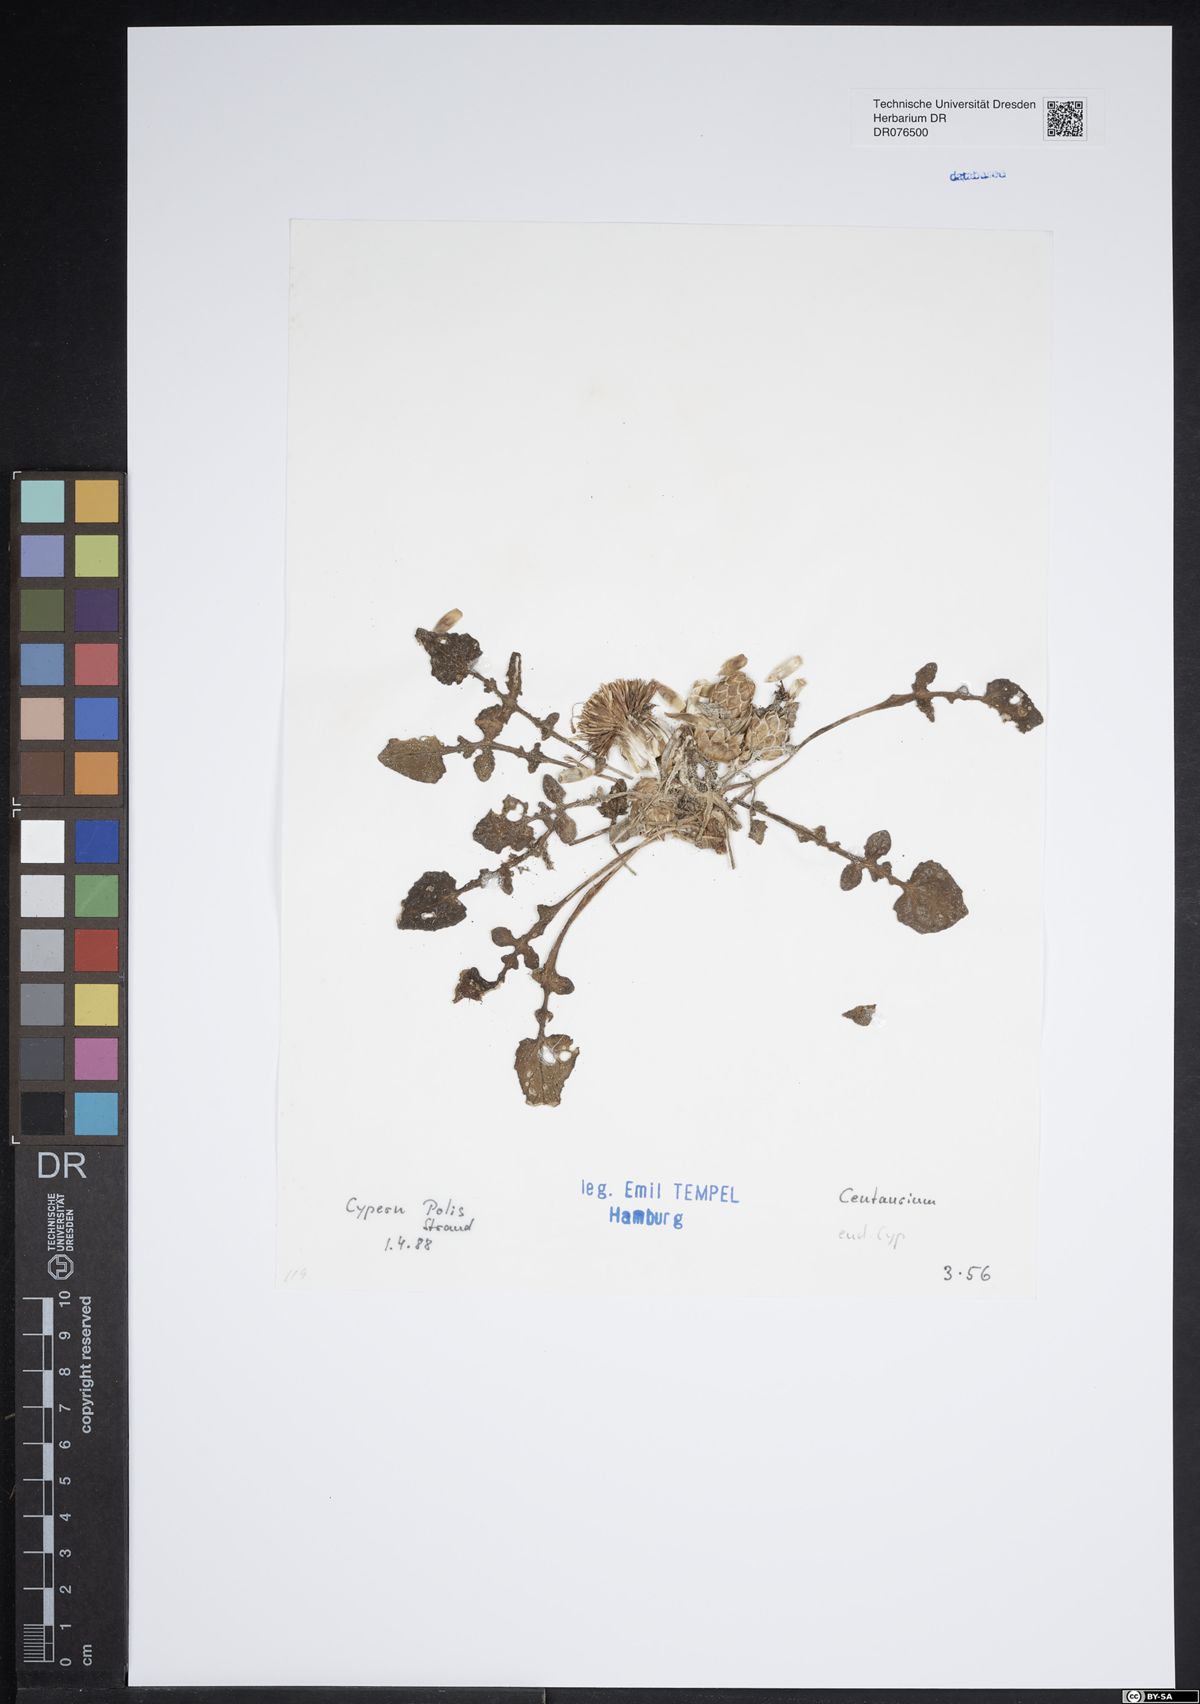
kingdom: Plantae
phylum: Tracheophyta
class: Magnoliopsida
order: Gentianales
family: Gentianaceae
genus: Centaurium
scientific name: Centaurium
